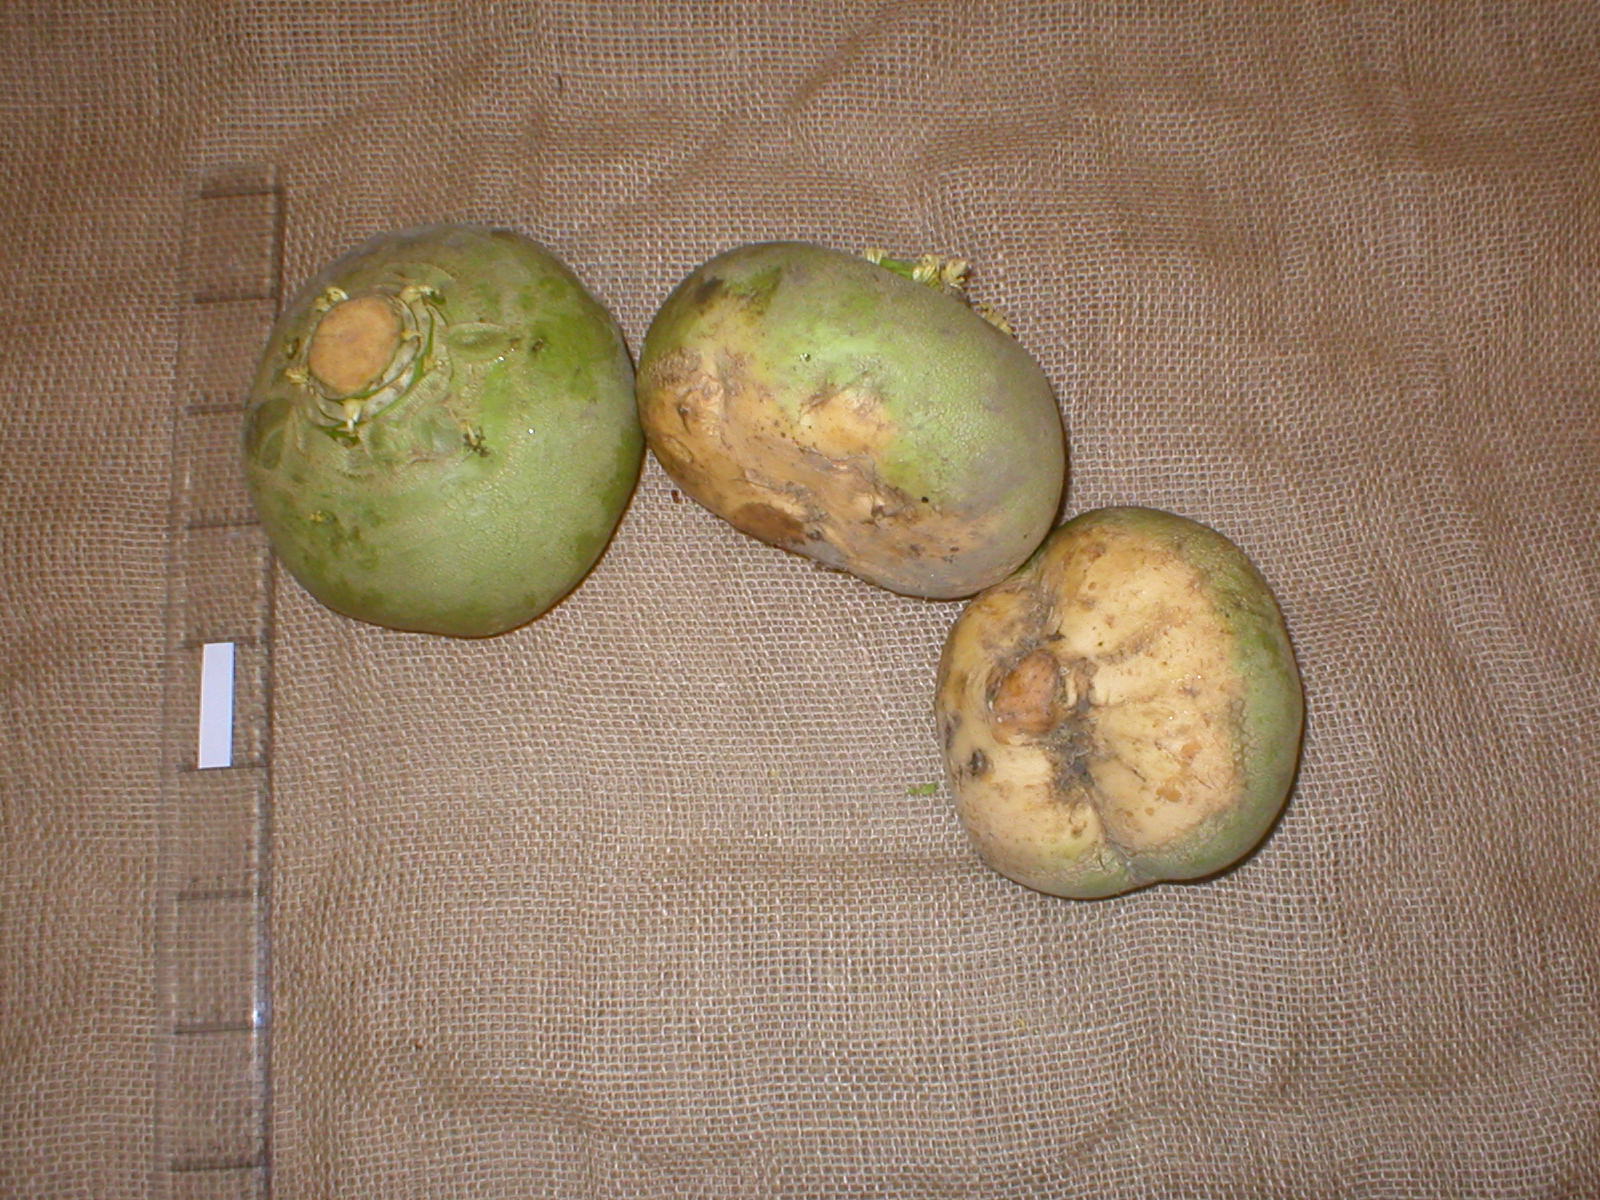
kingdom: Plantae
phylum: Tracheophyta
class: Magnoliopsida
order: Brassicales
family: Brassicaceae
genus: Brassica
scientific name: Brassica napus
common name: Rape
